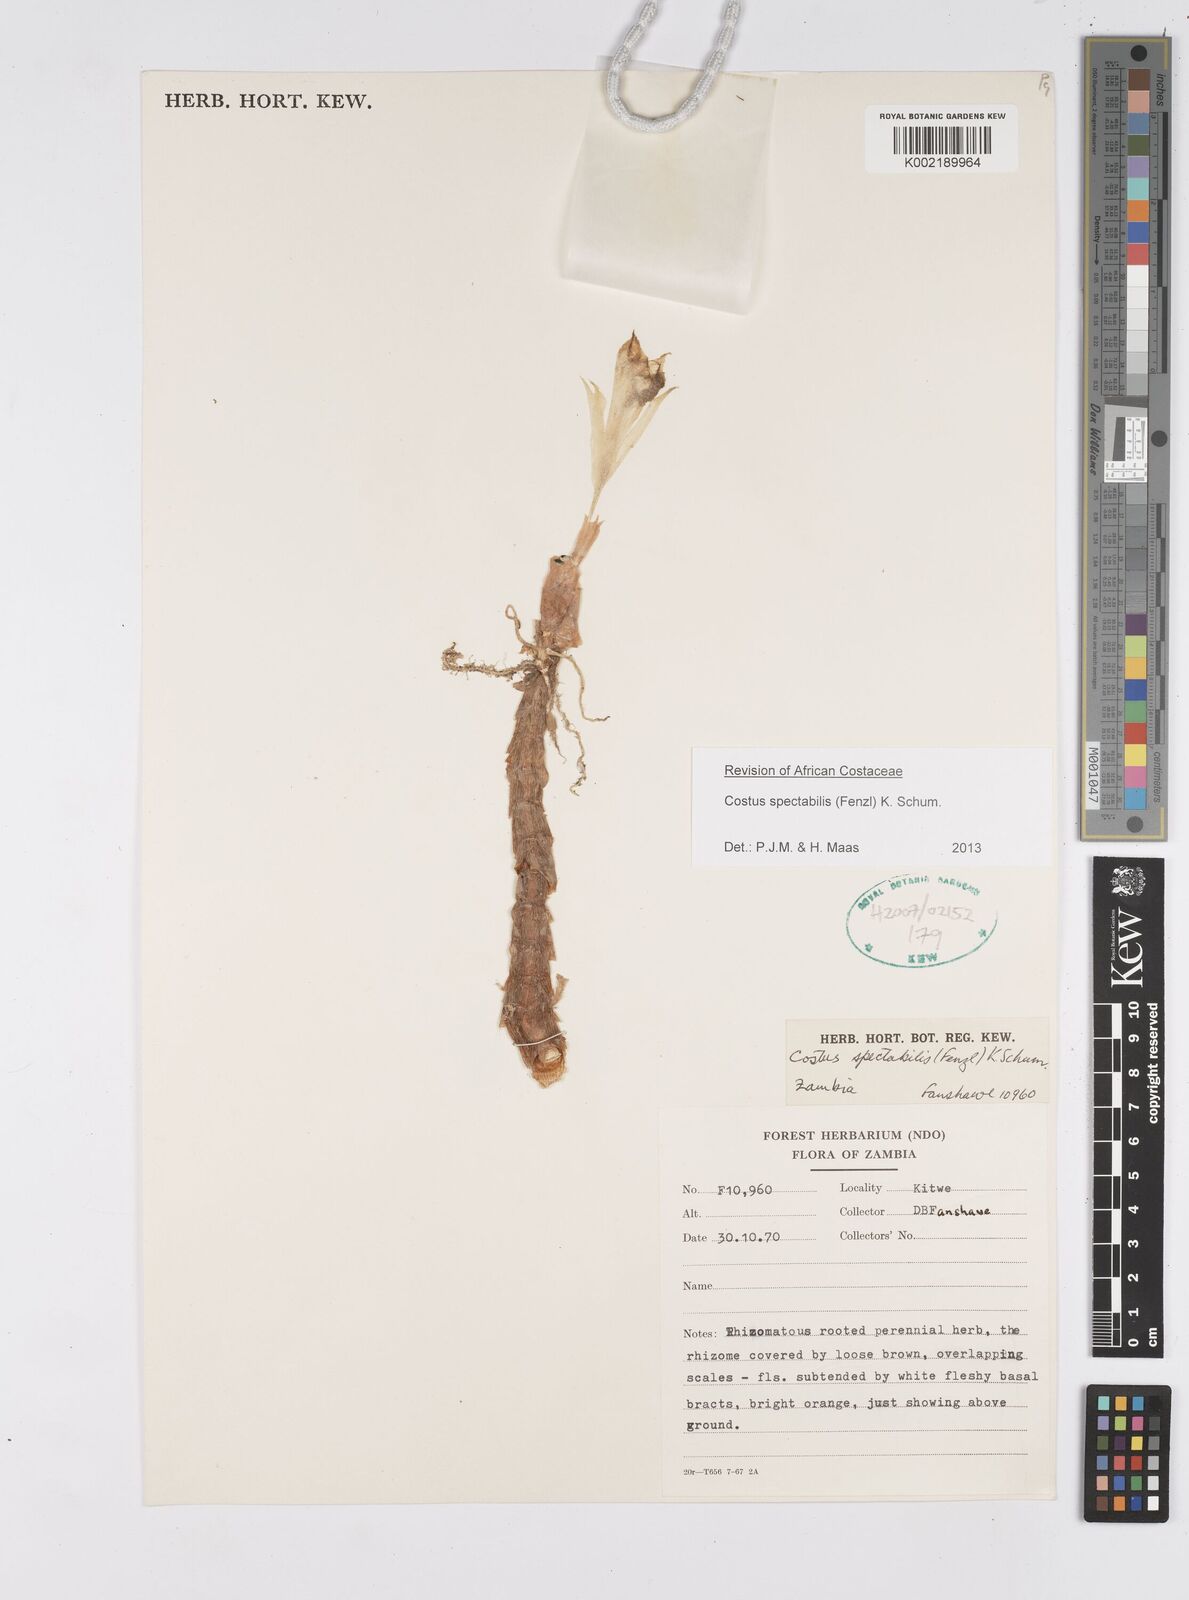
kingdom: Plantae
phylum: Tracheophyta
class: Liliopsida
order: Zingiberales
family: Costaceae
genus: Costus
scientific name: Costus spectabilis
